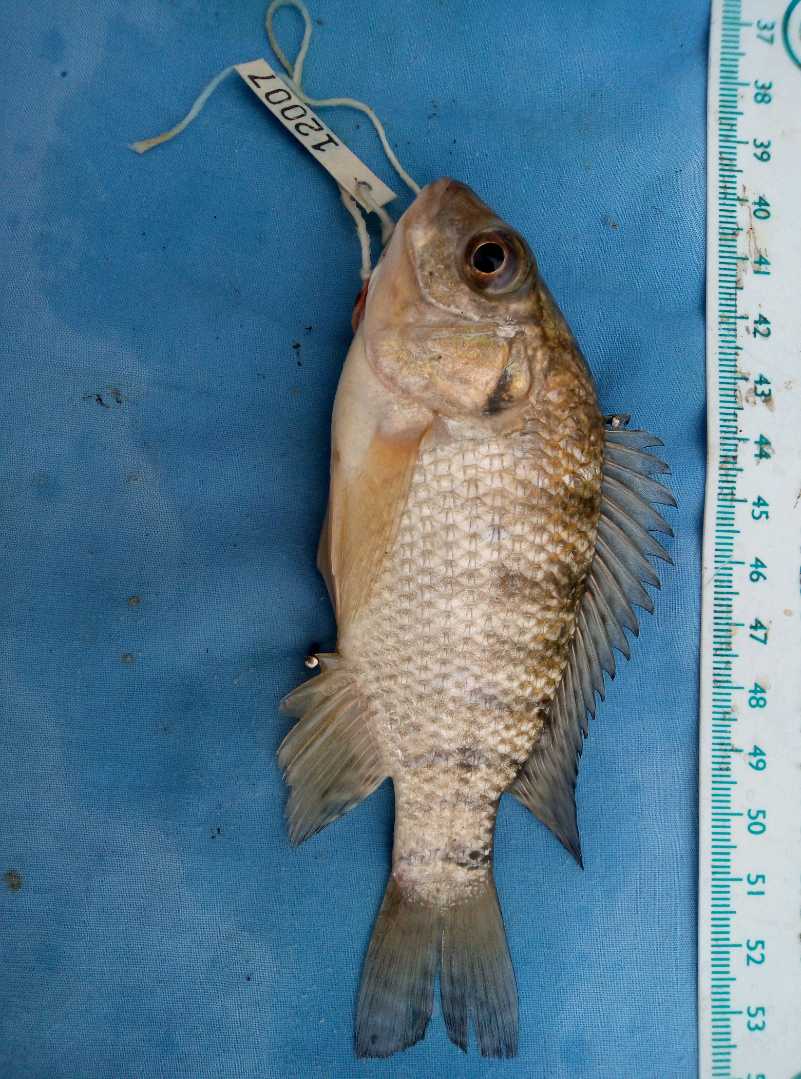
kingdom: Animalia
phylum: Chordata
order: Perciformes
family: Cichlidae
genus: Oreochromis
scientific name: Oreochromis niloticus
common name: Nile tilapia
